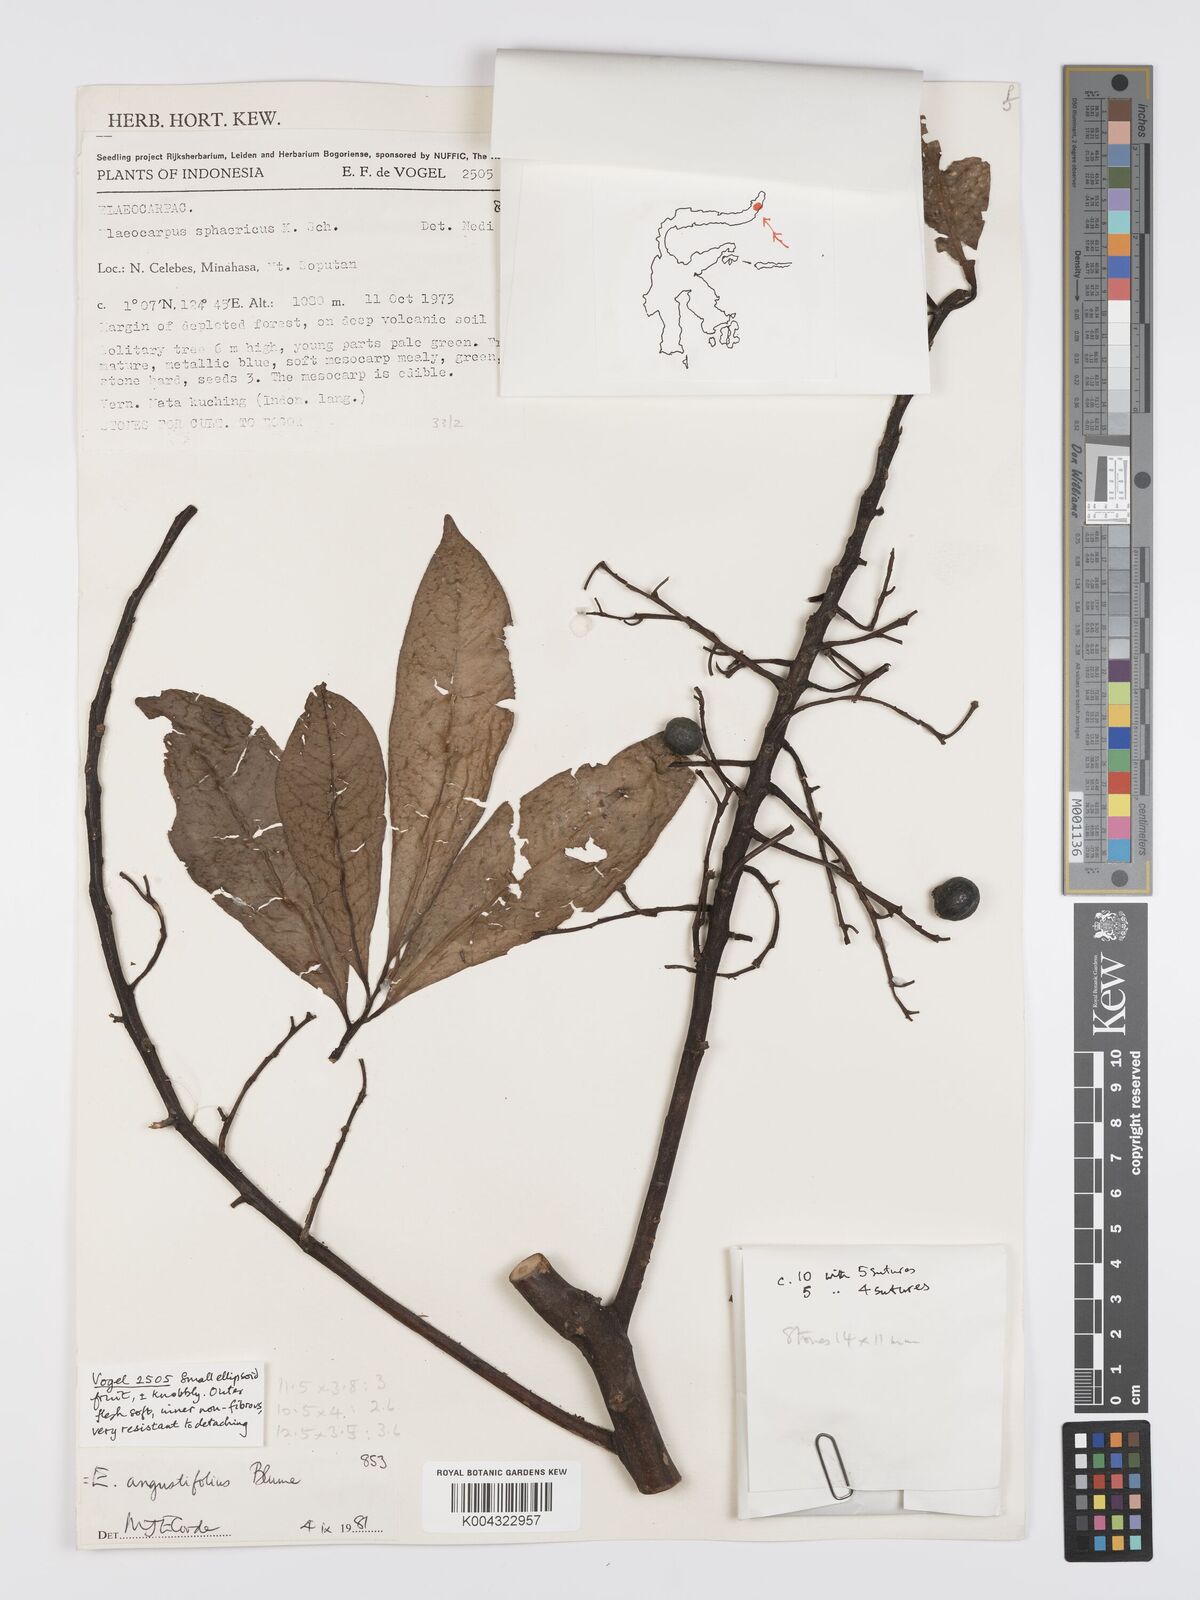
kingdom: Plantae
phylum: Tracheophyta
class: Magnoliopsida
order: Oxalidales
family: Elaeocarpaceae
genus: Elaeocarpus
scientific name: Elaeocarpus
